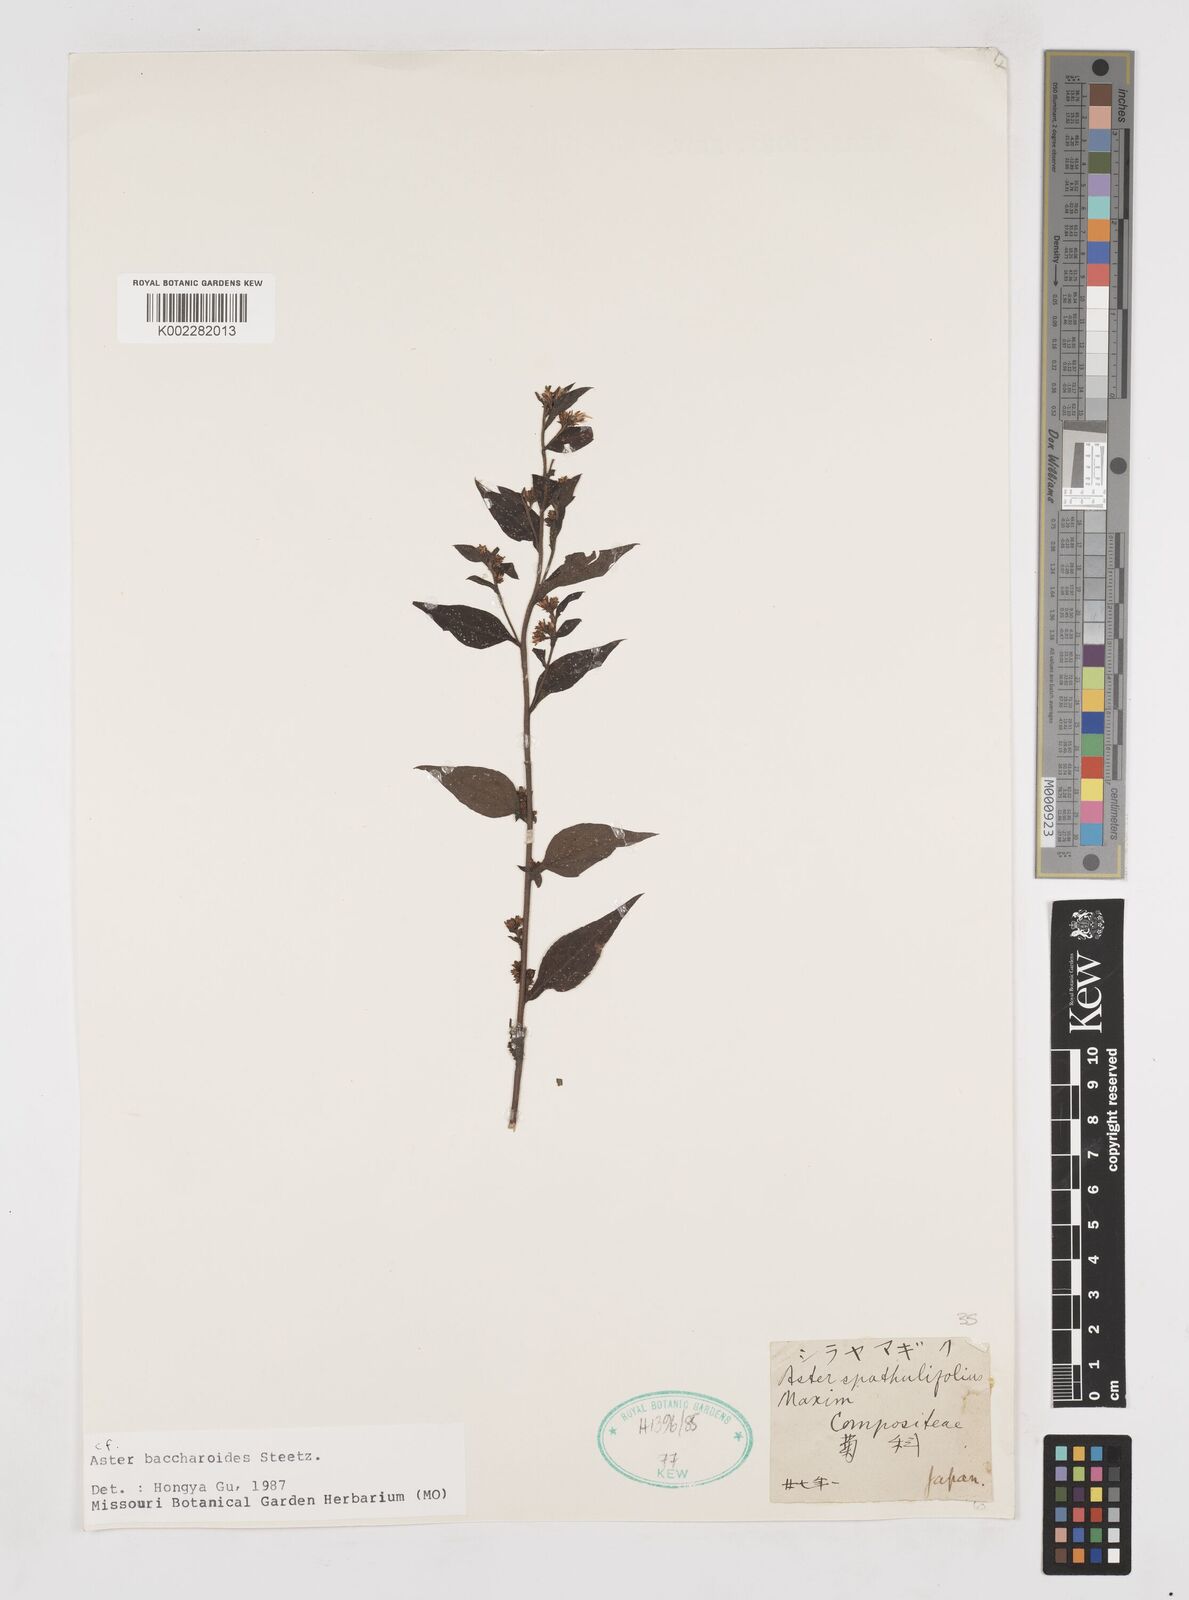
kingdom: Plantae
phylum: Tracheophyta
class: Magnoliopsida
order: Asterales
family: Asteraceae
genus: Aster
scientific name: Aster baccharoides
